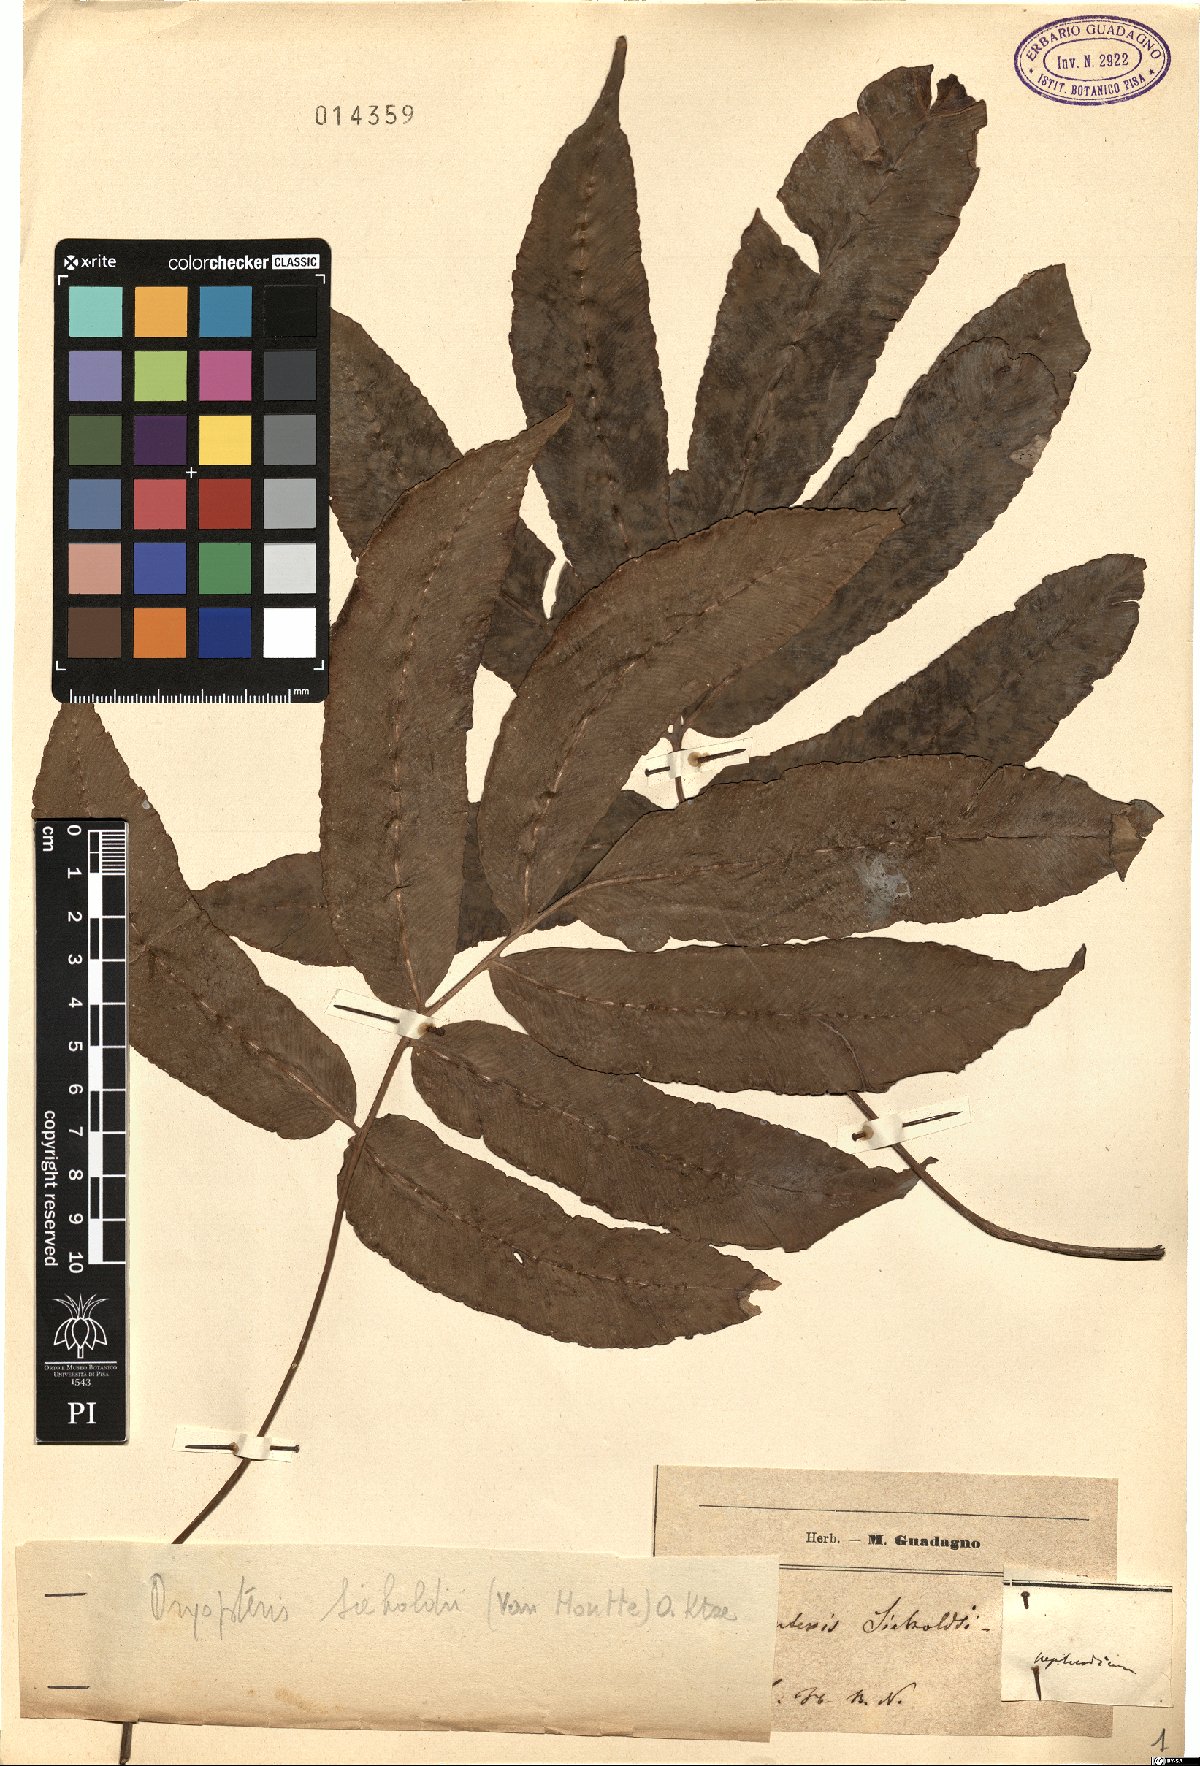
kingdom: Plantae
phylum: Tracheophyta
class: Polypodiopsida
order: Polypodiales
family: Dryopteridaceae
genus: Dryopteris
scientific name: Dryopteris sieboldii
